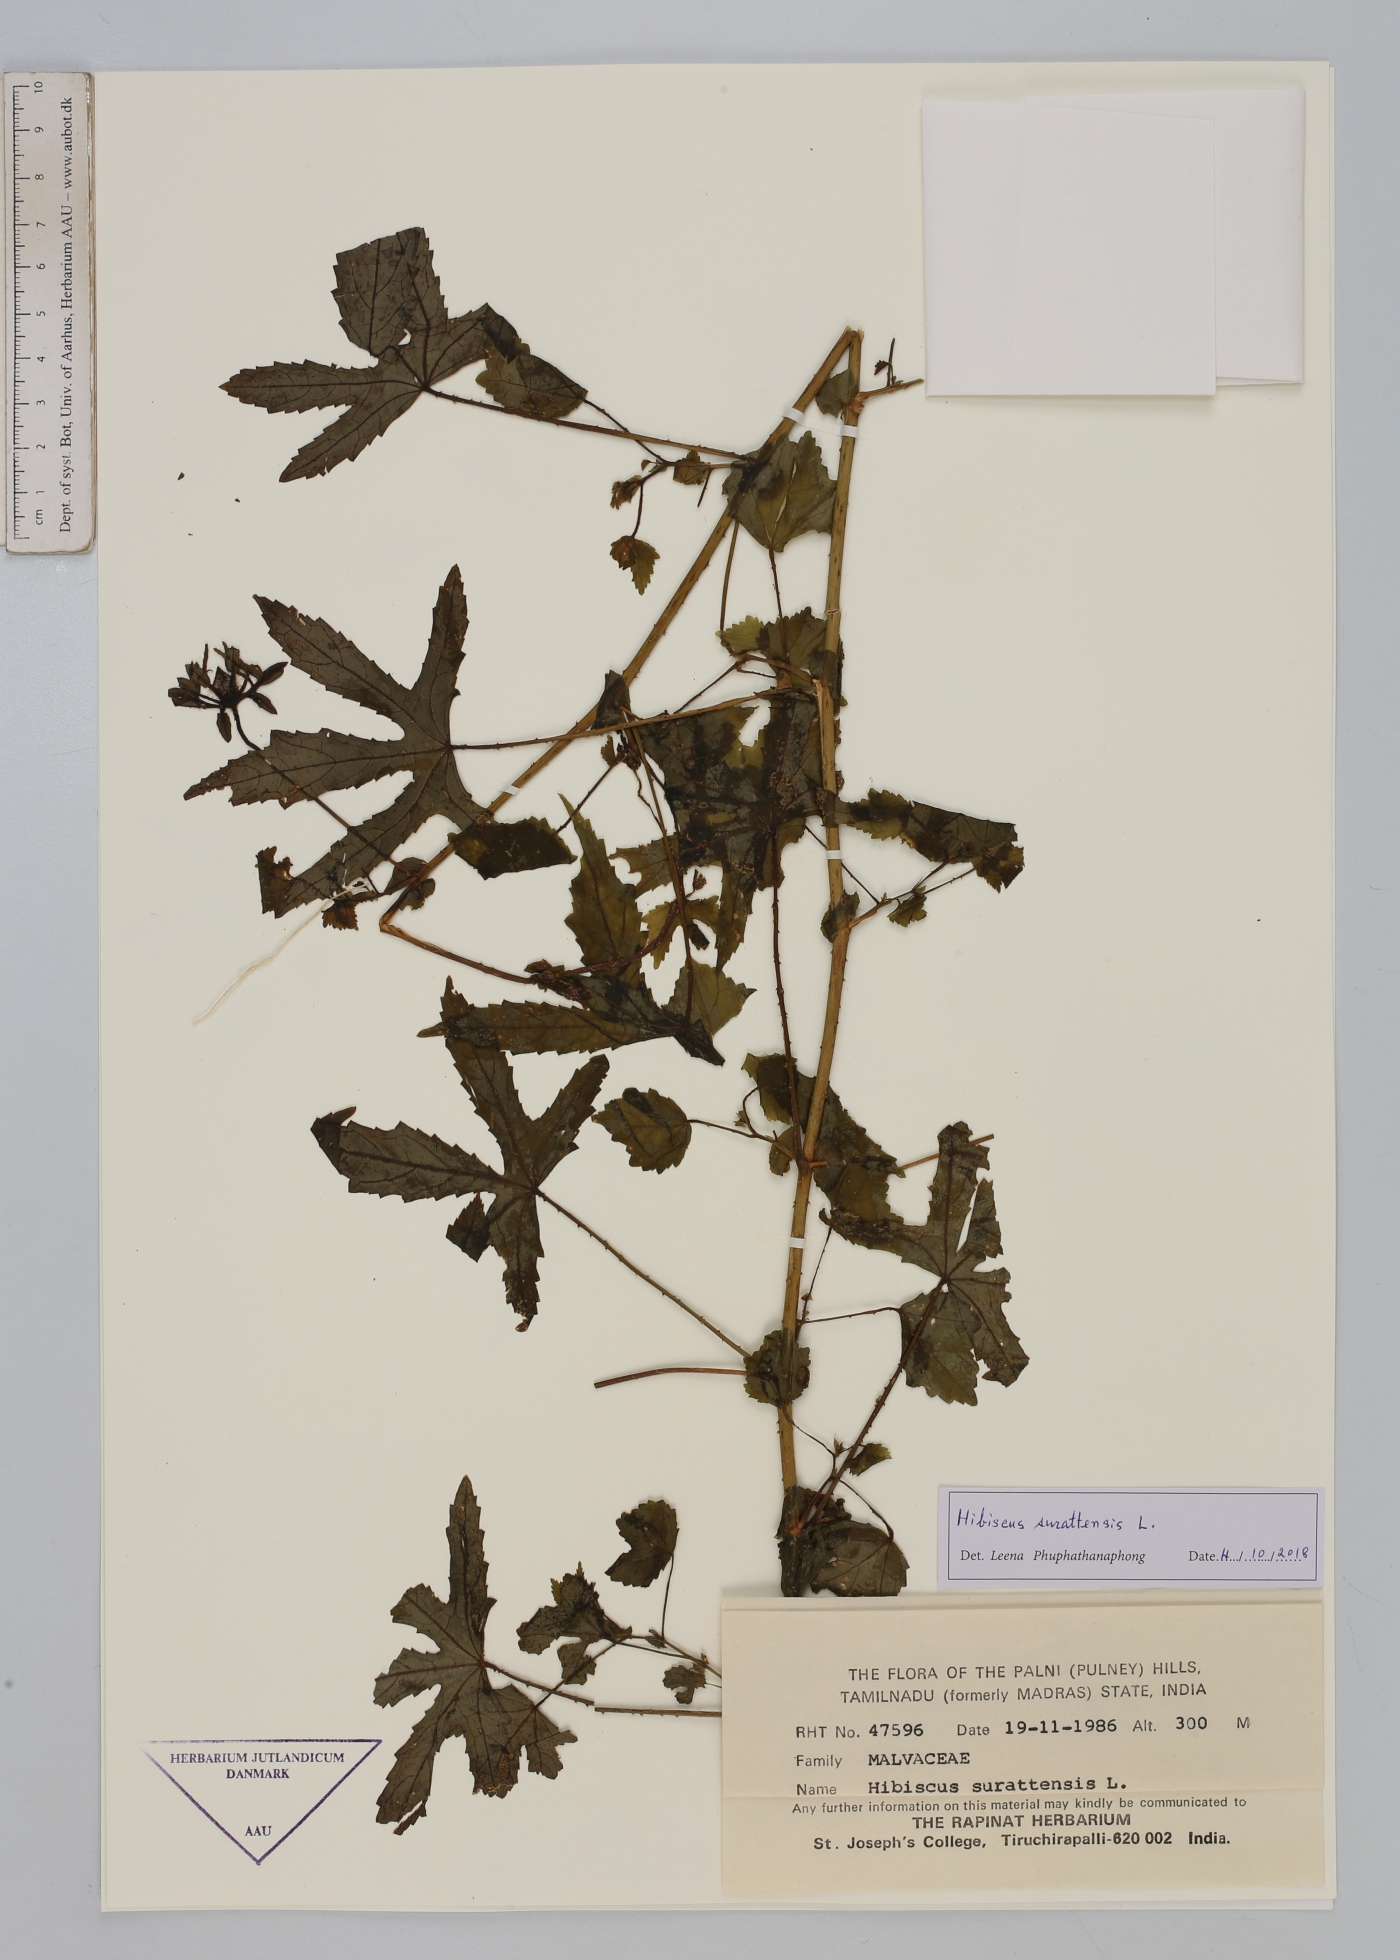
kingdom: Plantae
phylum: Tracheophyta
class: Magnoliopsida
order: Malvales
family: Malvaceae
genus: Hibiscus
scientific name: Hibiscus surattensis
